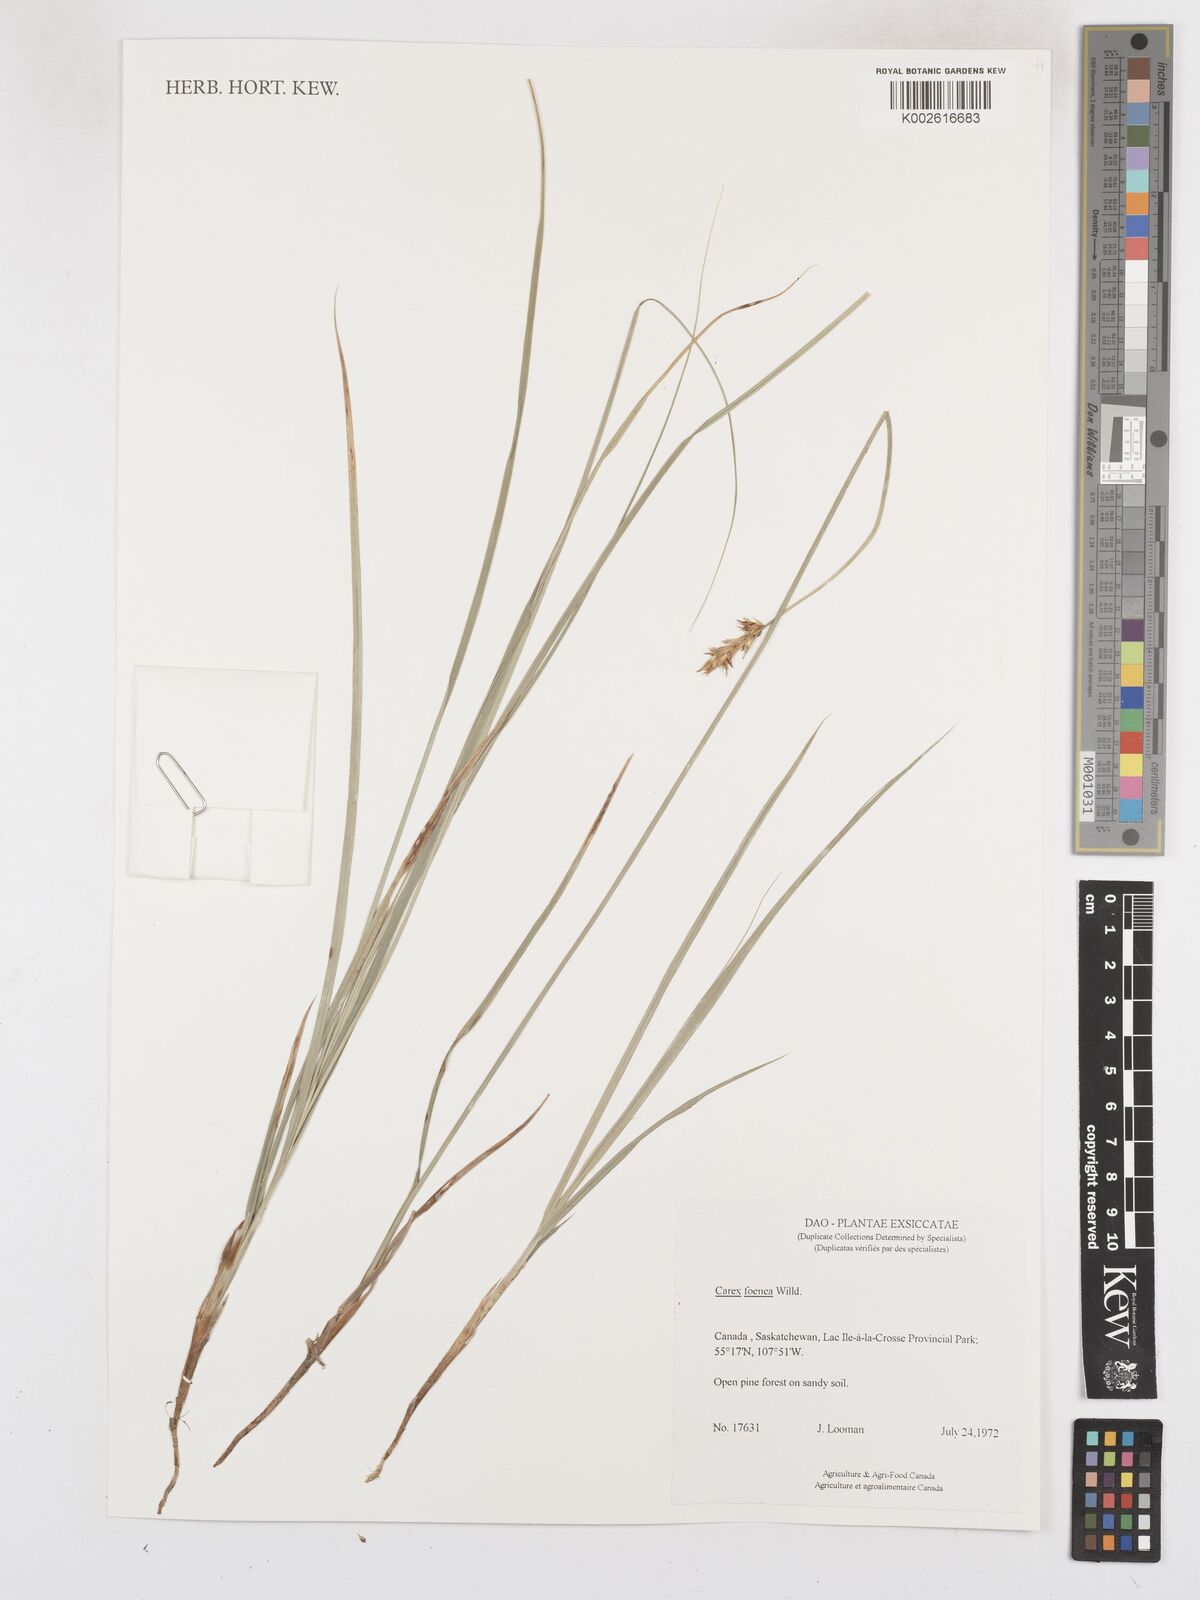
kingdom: Plantae
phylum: Tracheophyta
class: Liliopsida
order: Poales
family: Cyperaceae
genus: Carex
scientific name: Carex argyrantha
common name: Silvery-flowered sedge
